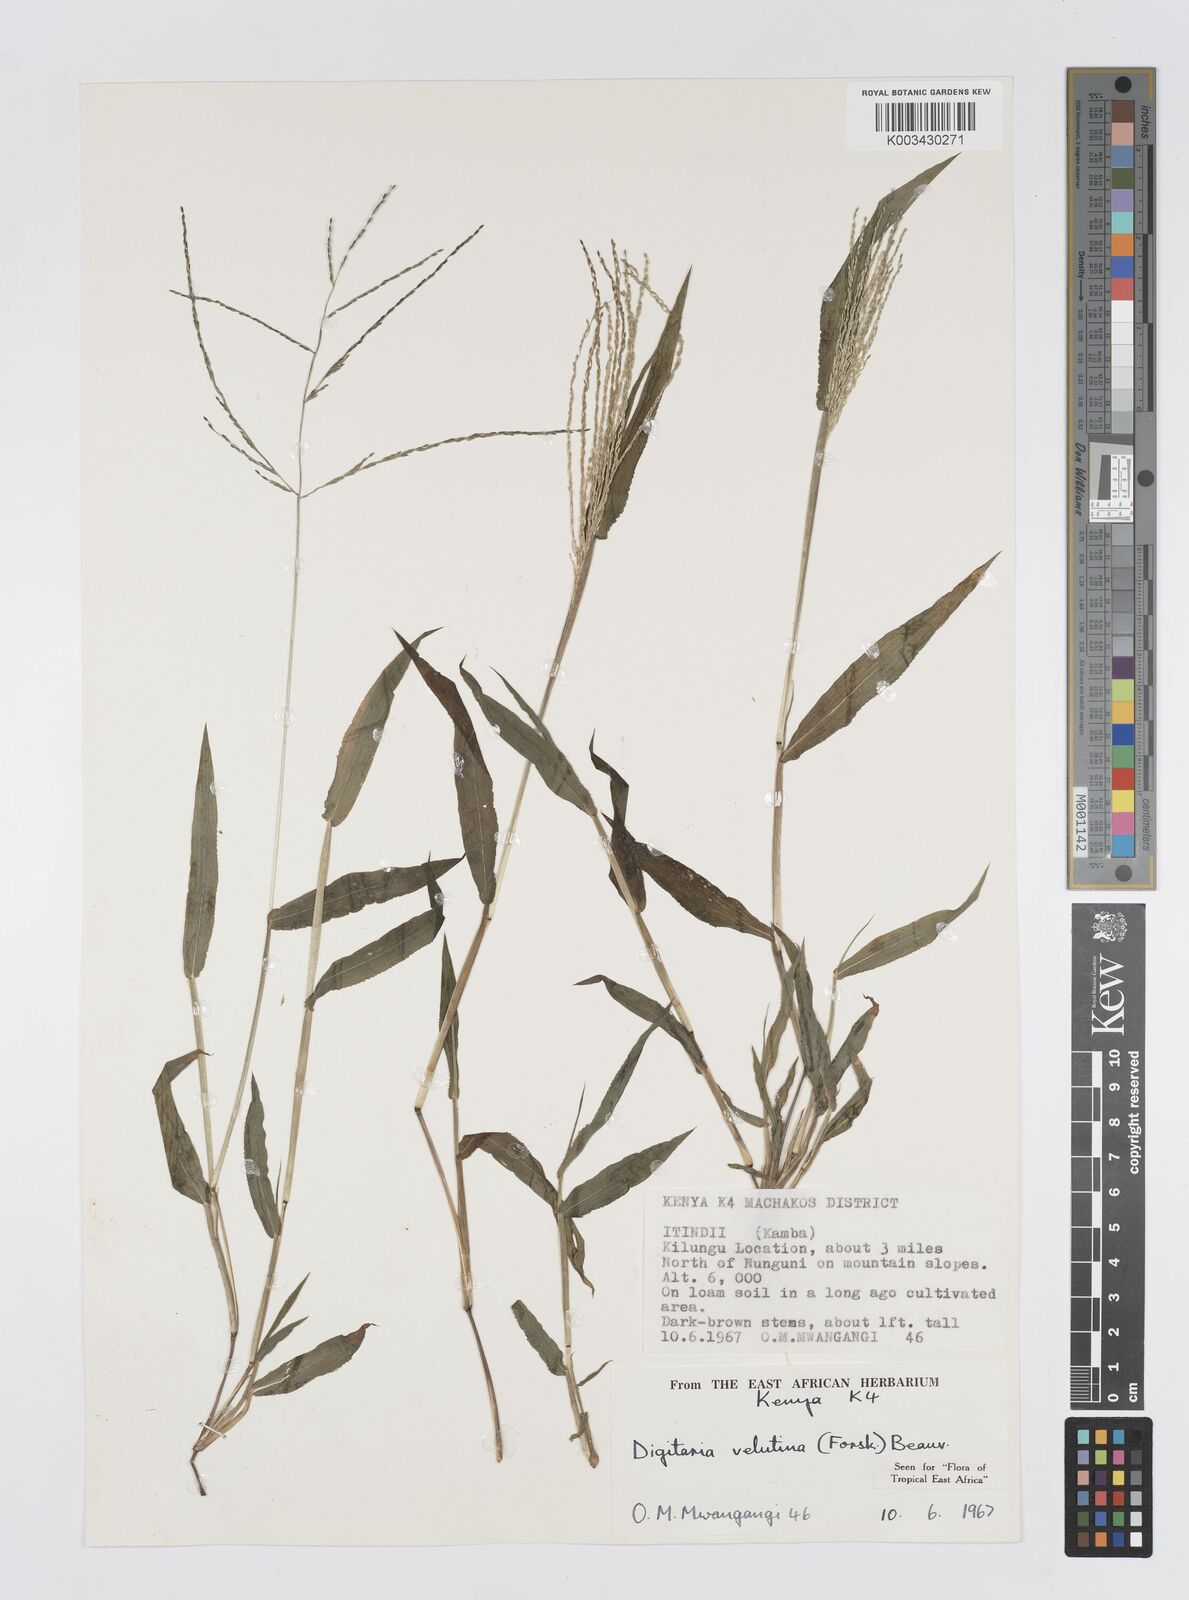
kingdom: Plantae
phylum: Tracheophyta
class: Liliopsida
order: Poales
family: Poaceae
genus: Digitaria
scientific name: Digitaria velutina
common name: Long-plume finger grass
